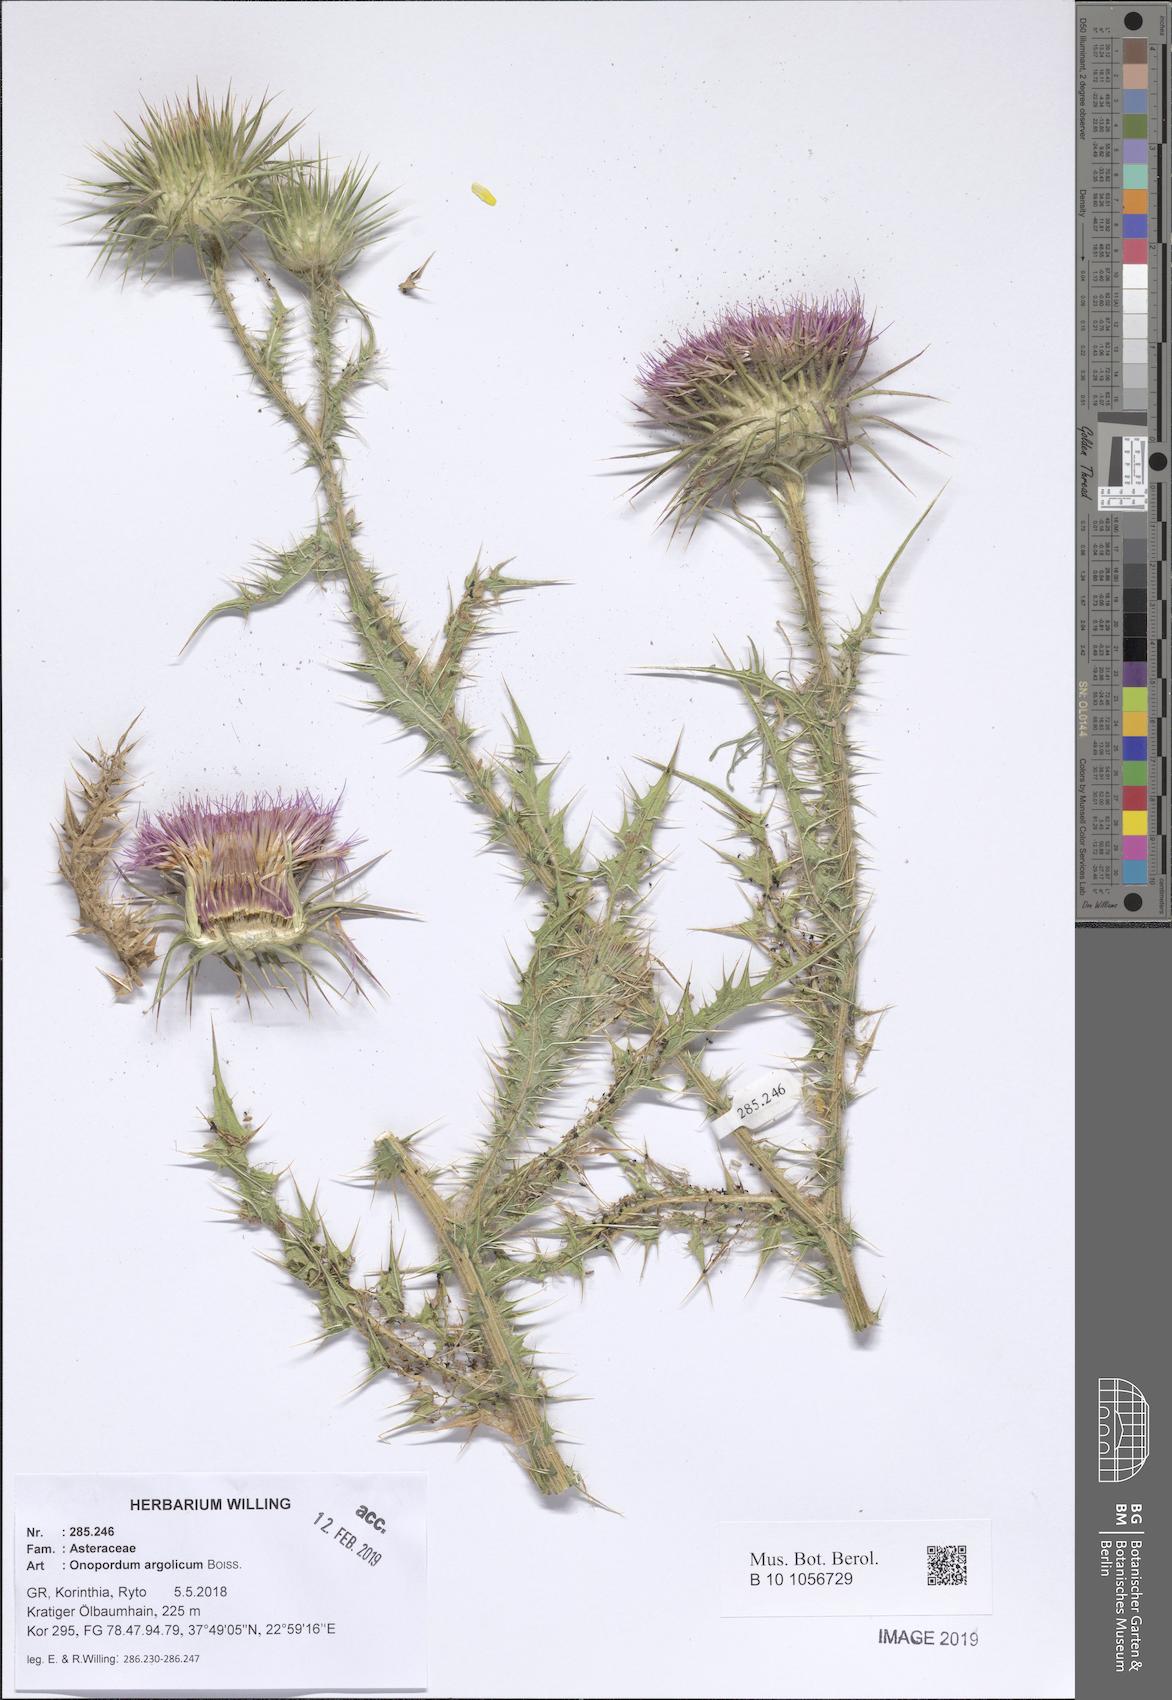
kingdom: Plantae
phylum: Tracheophyta
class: Magnoliopsida
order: Asterales
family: Asteraceae
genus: Onopordum
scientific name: Onopordum tauricum
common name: Bull cottonthistle
